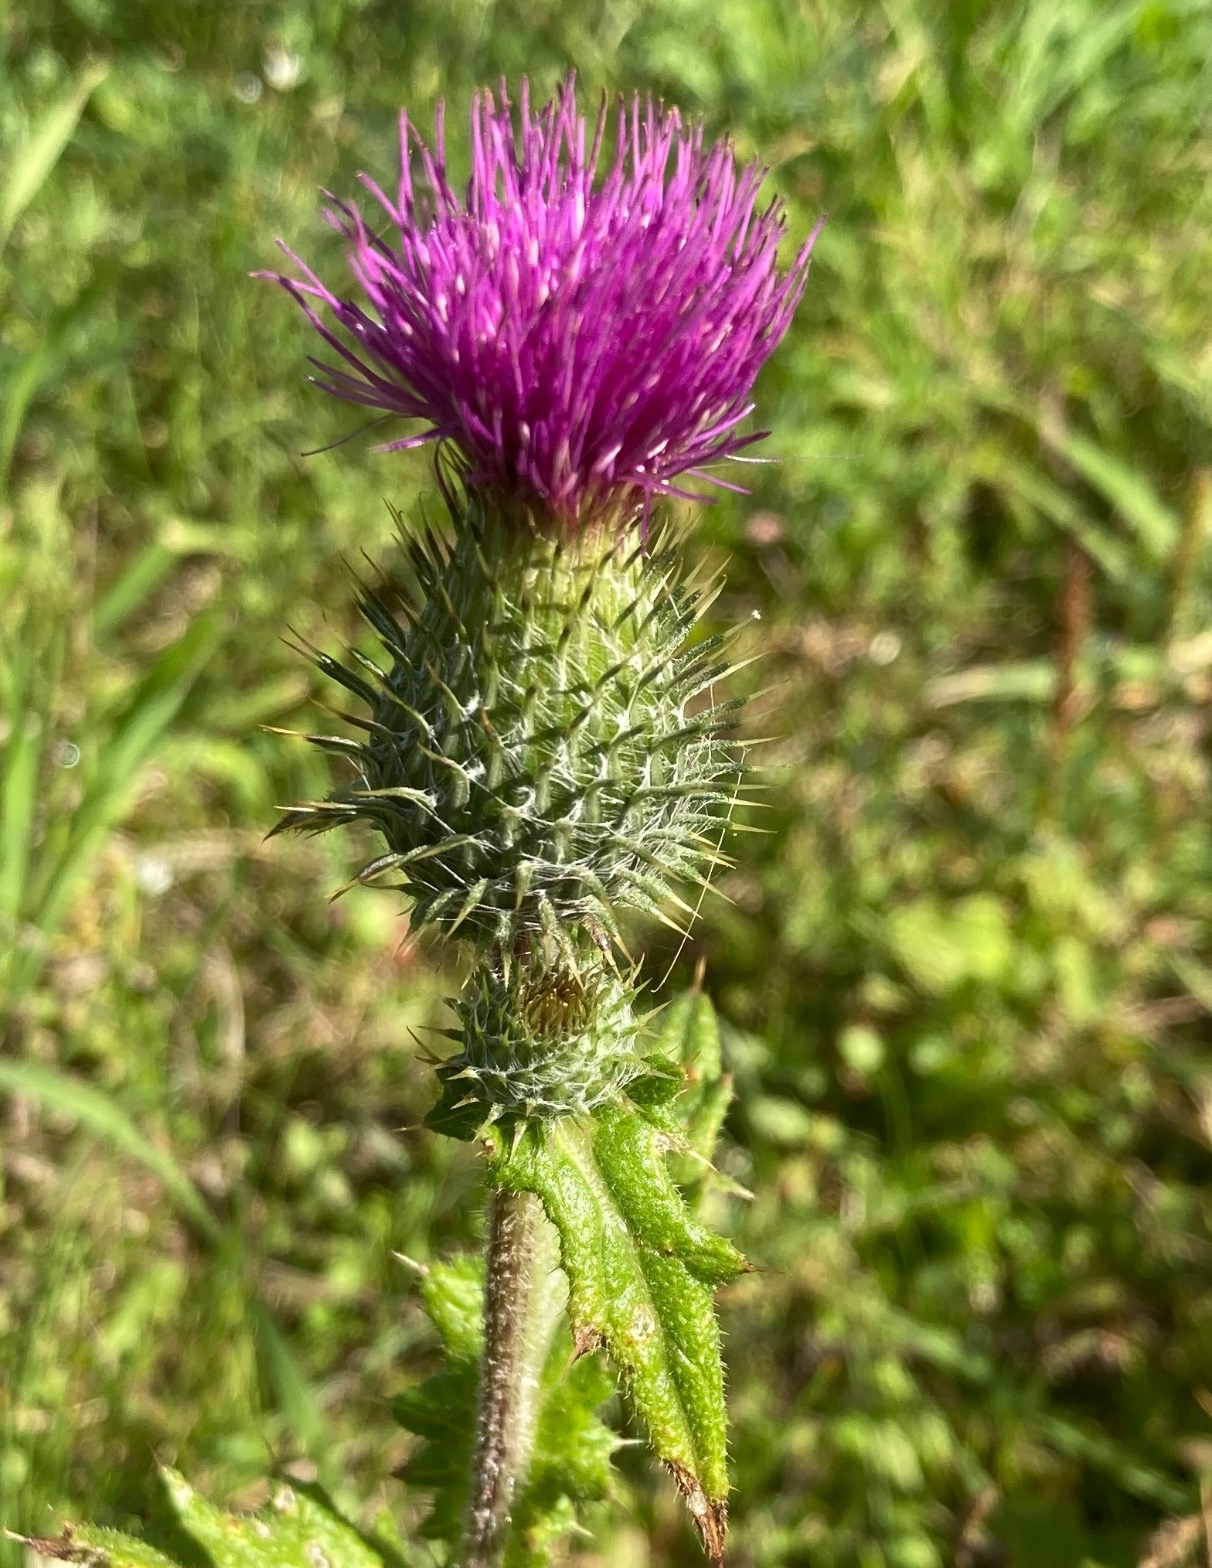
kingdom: Plantae
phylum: Tracheophyta
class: Magnoliopsida
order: Asterales
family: Asteraceae
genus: Cirsium
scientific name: Cirsium vulgare
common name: Horse-tidsel
